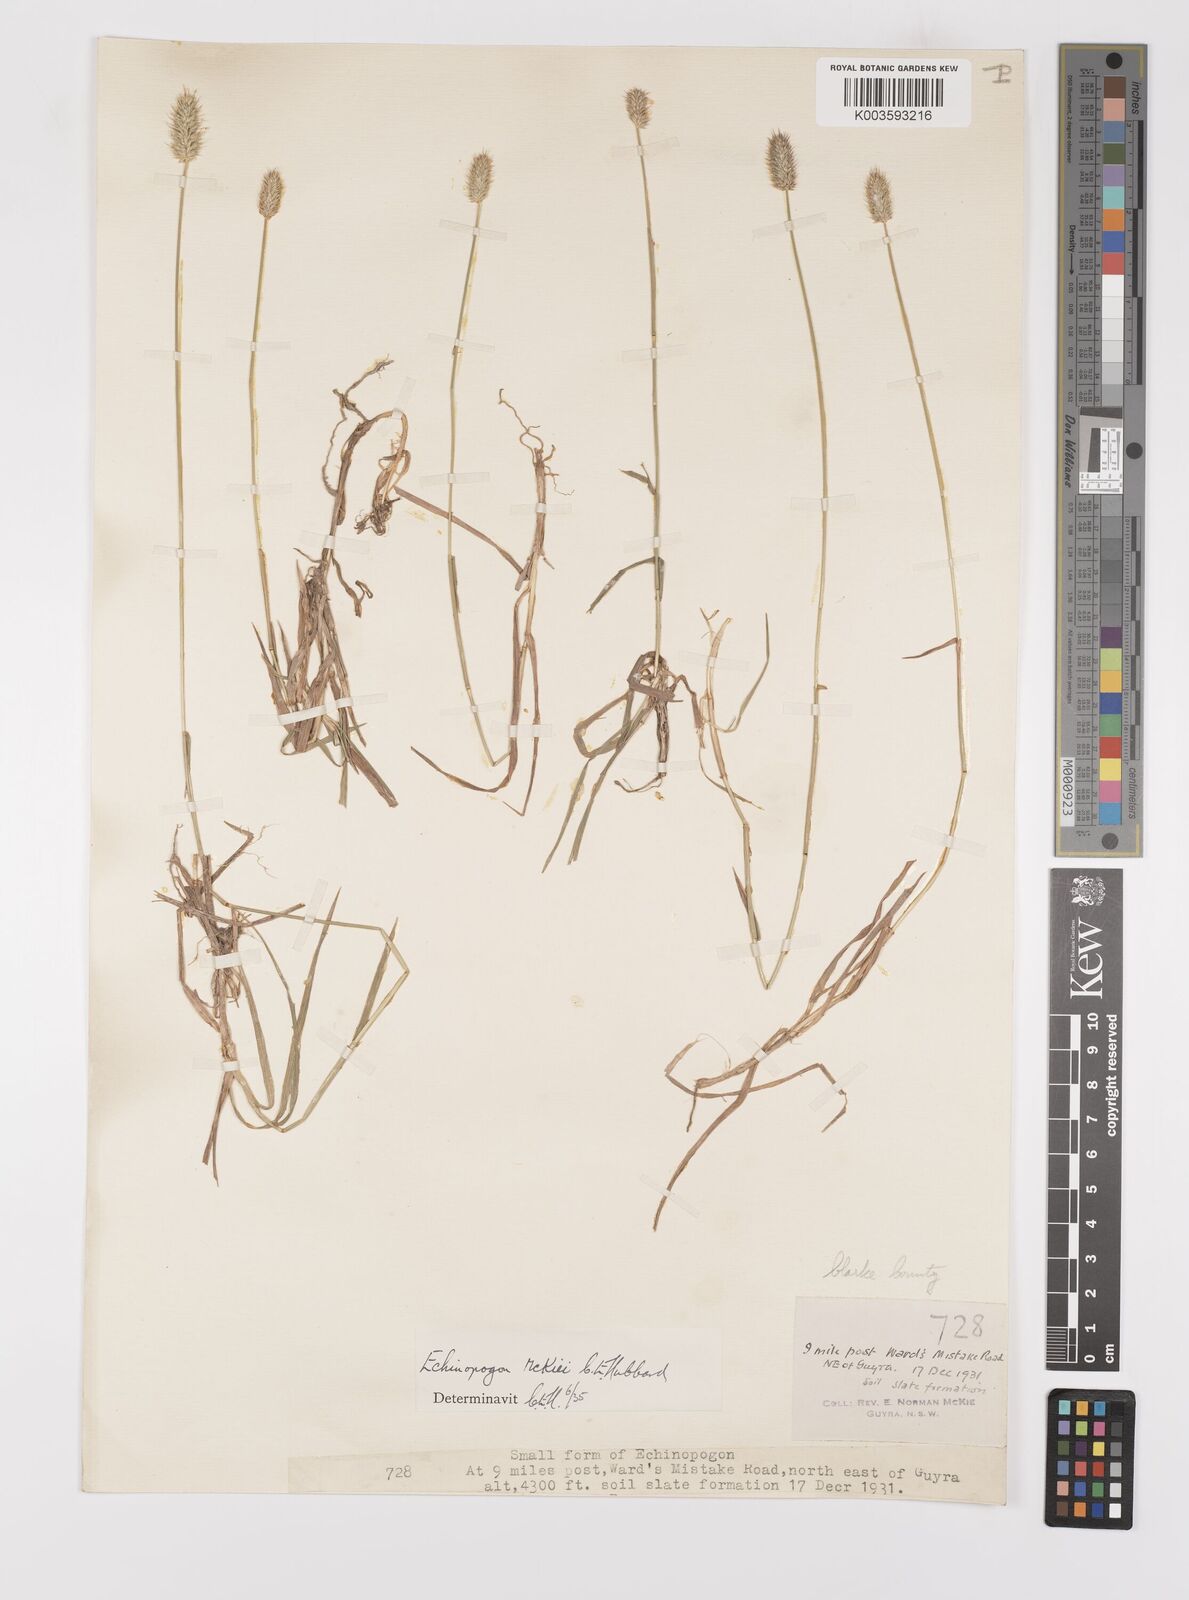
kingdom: Plantae
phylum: Tracheophyta
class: Liliopsida
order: Poales
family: Poaceae
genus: Echinopogon
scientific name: Echinopogon mckiei
